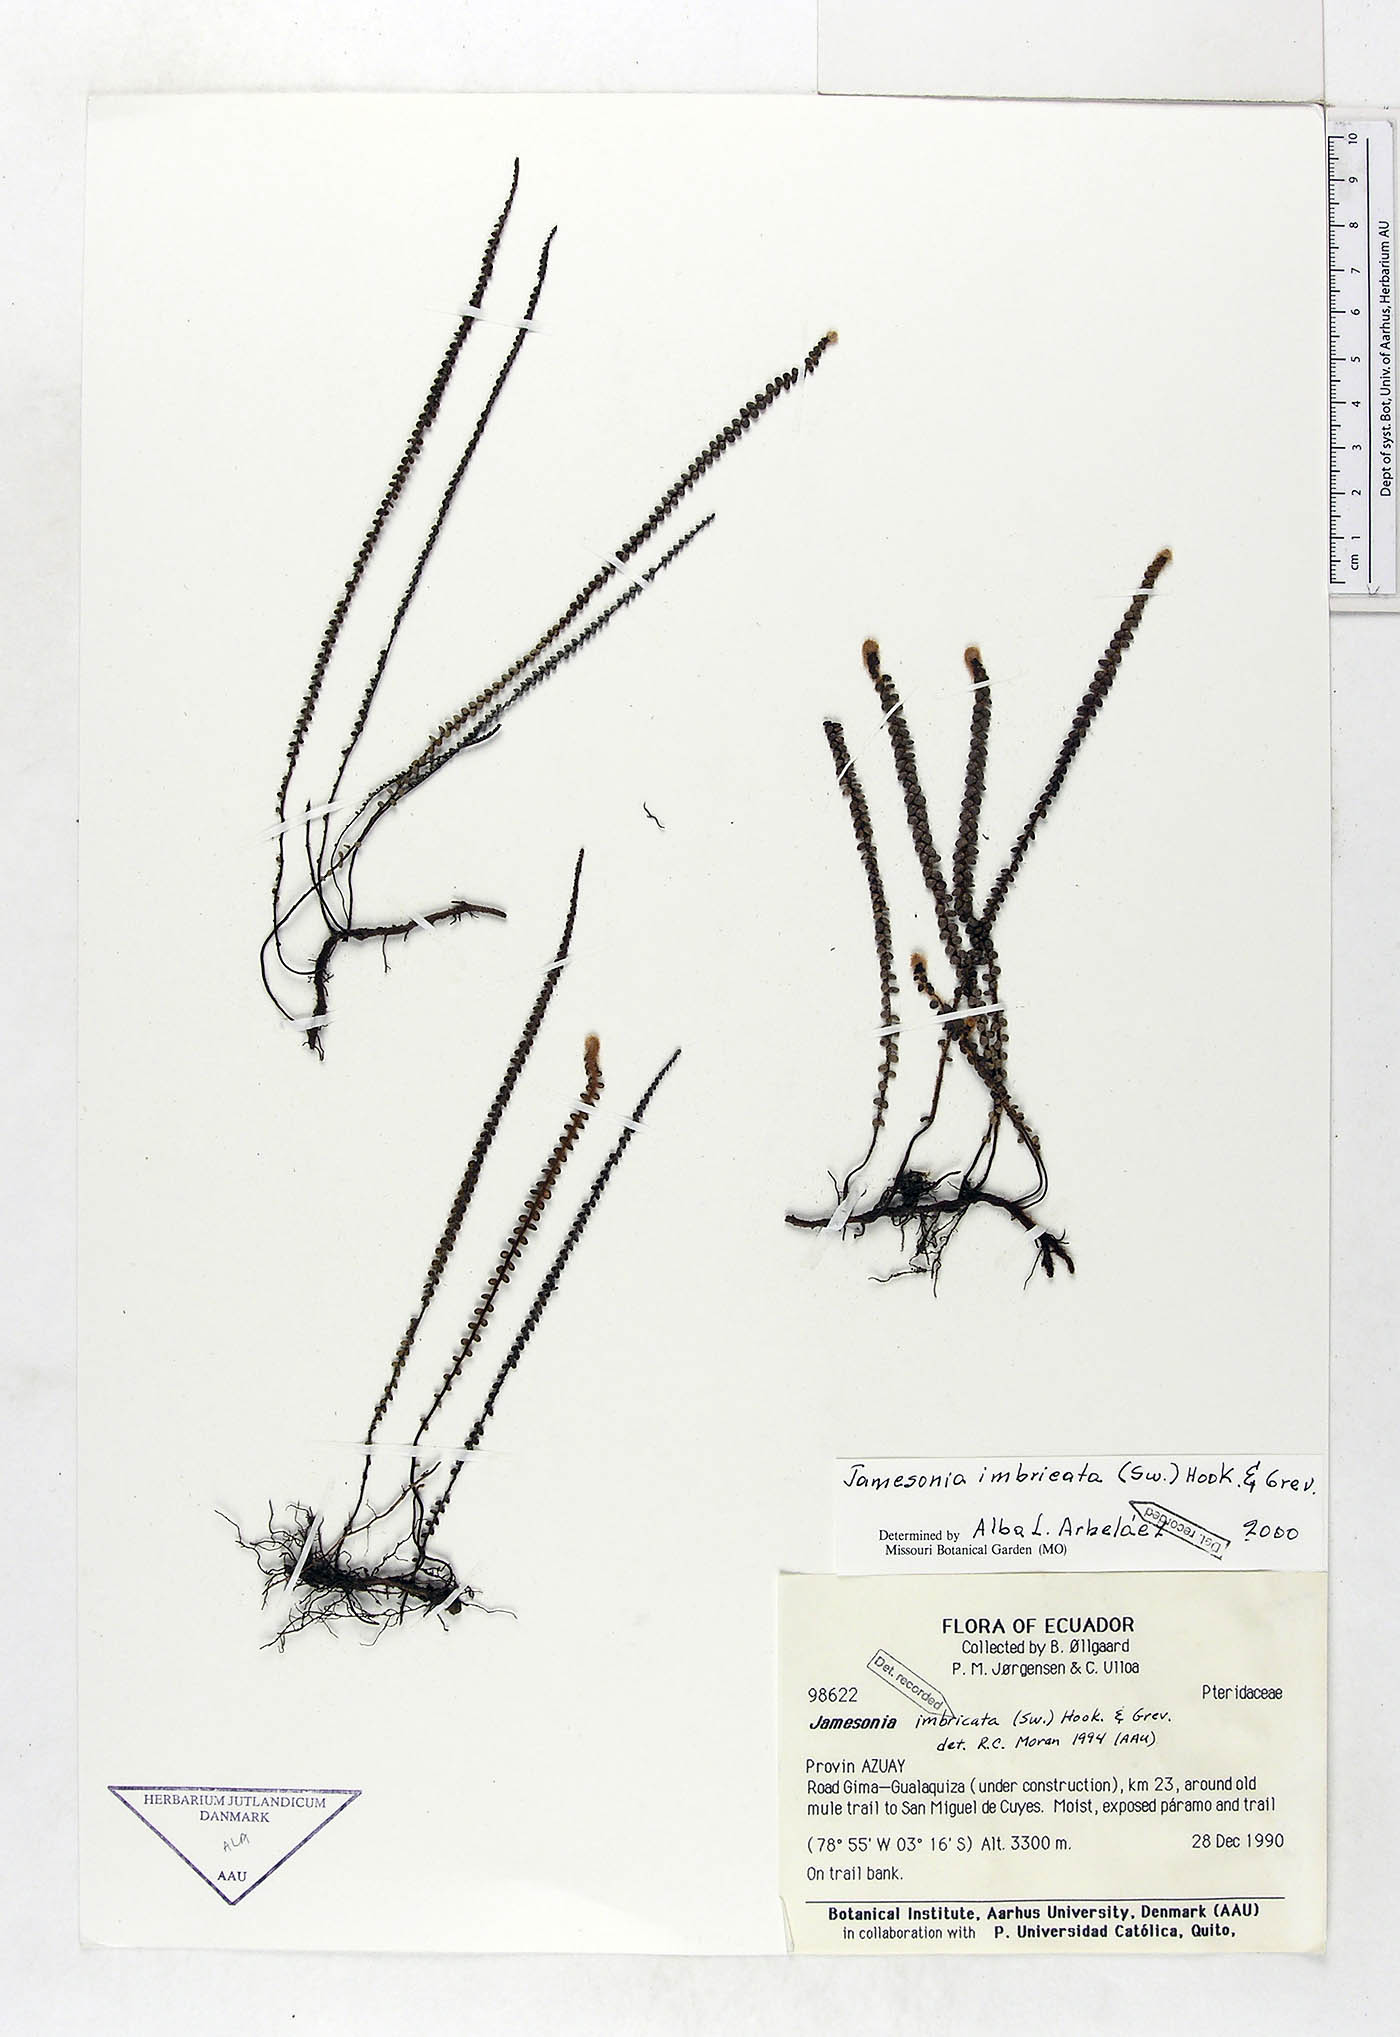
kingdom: Plantae
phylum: Tracheophyta
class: Polypodiopsida
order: Polypodiales
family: Pteridaceae
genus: Jamesonia
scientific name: Jamesonia imbricata
